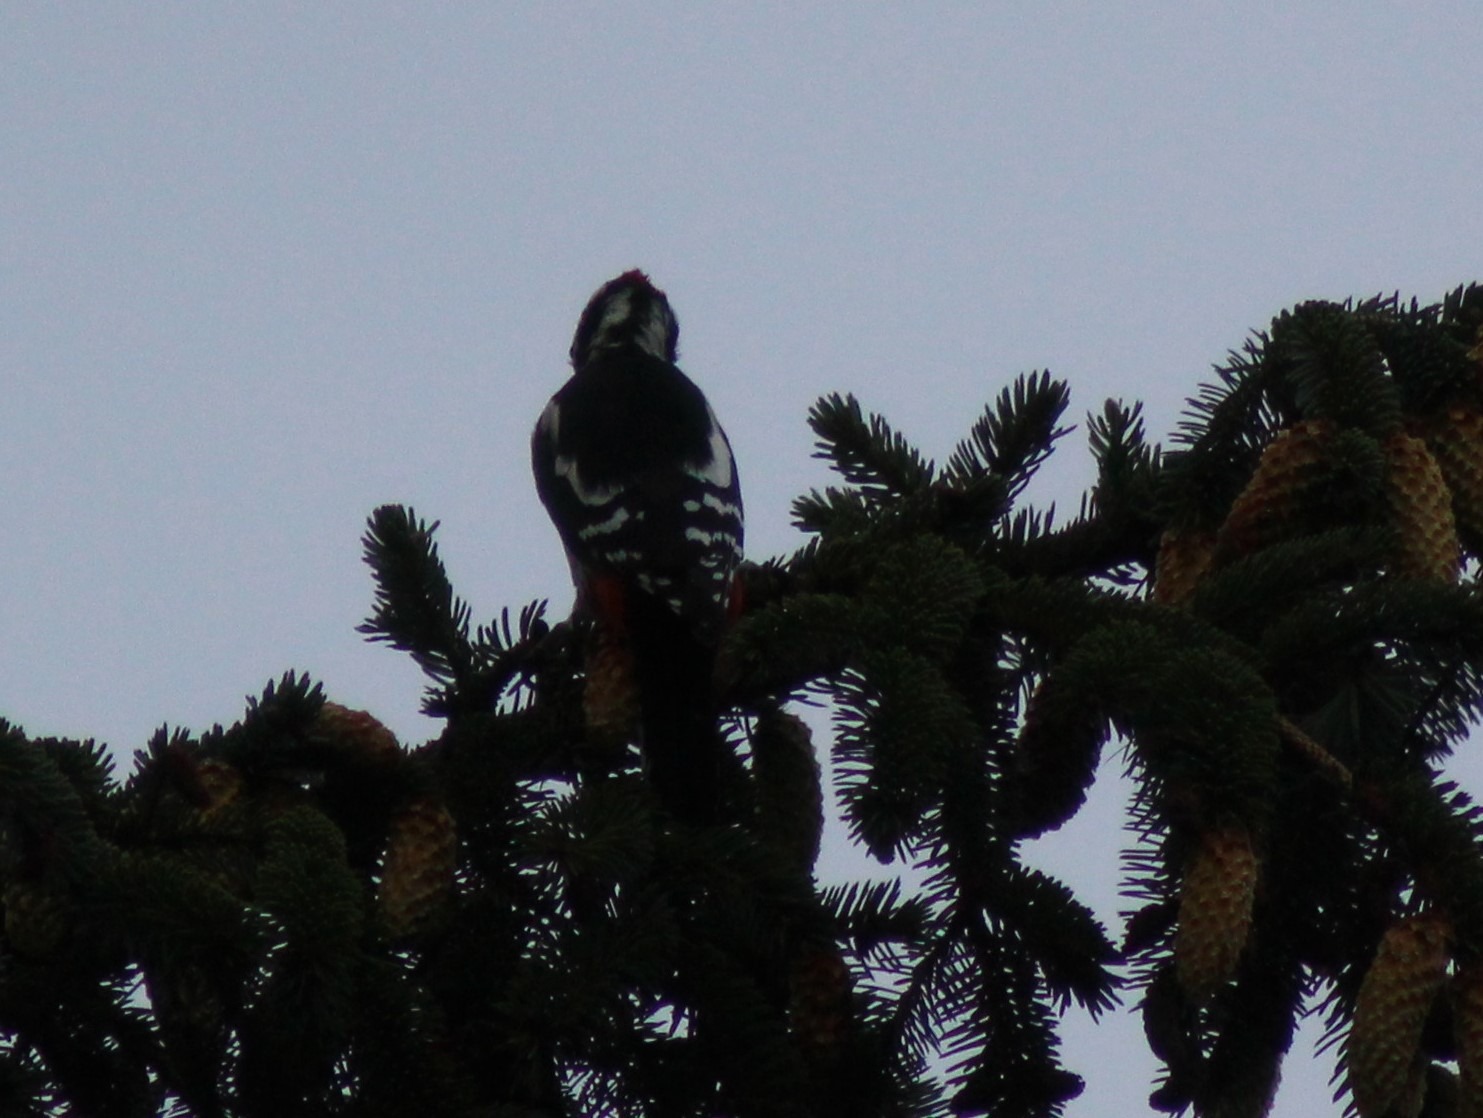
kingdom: Animalia
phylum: Chordata
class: Aves
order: Piciformes
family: Picidae
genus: Dendrocopos
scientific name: Dendrocopos major
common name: Stor flagspætte
